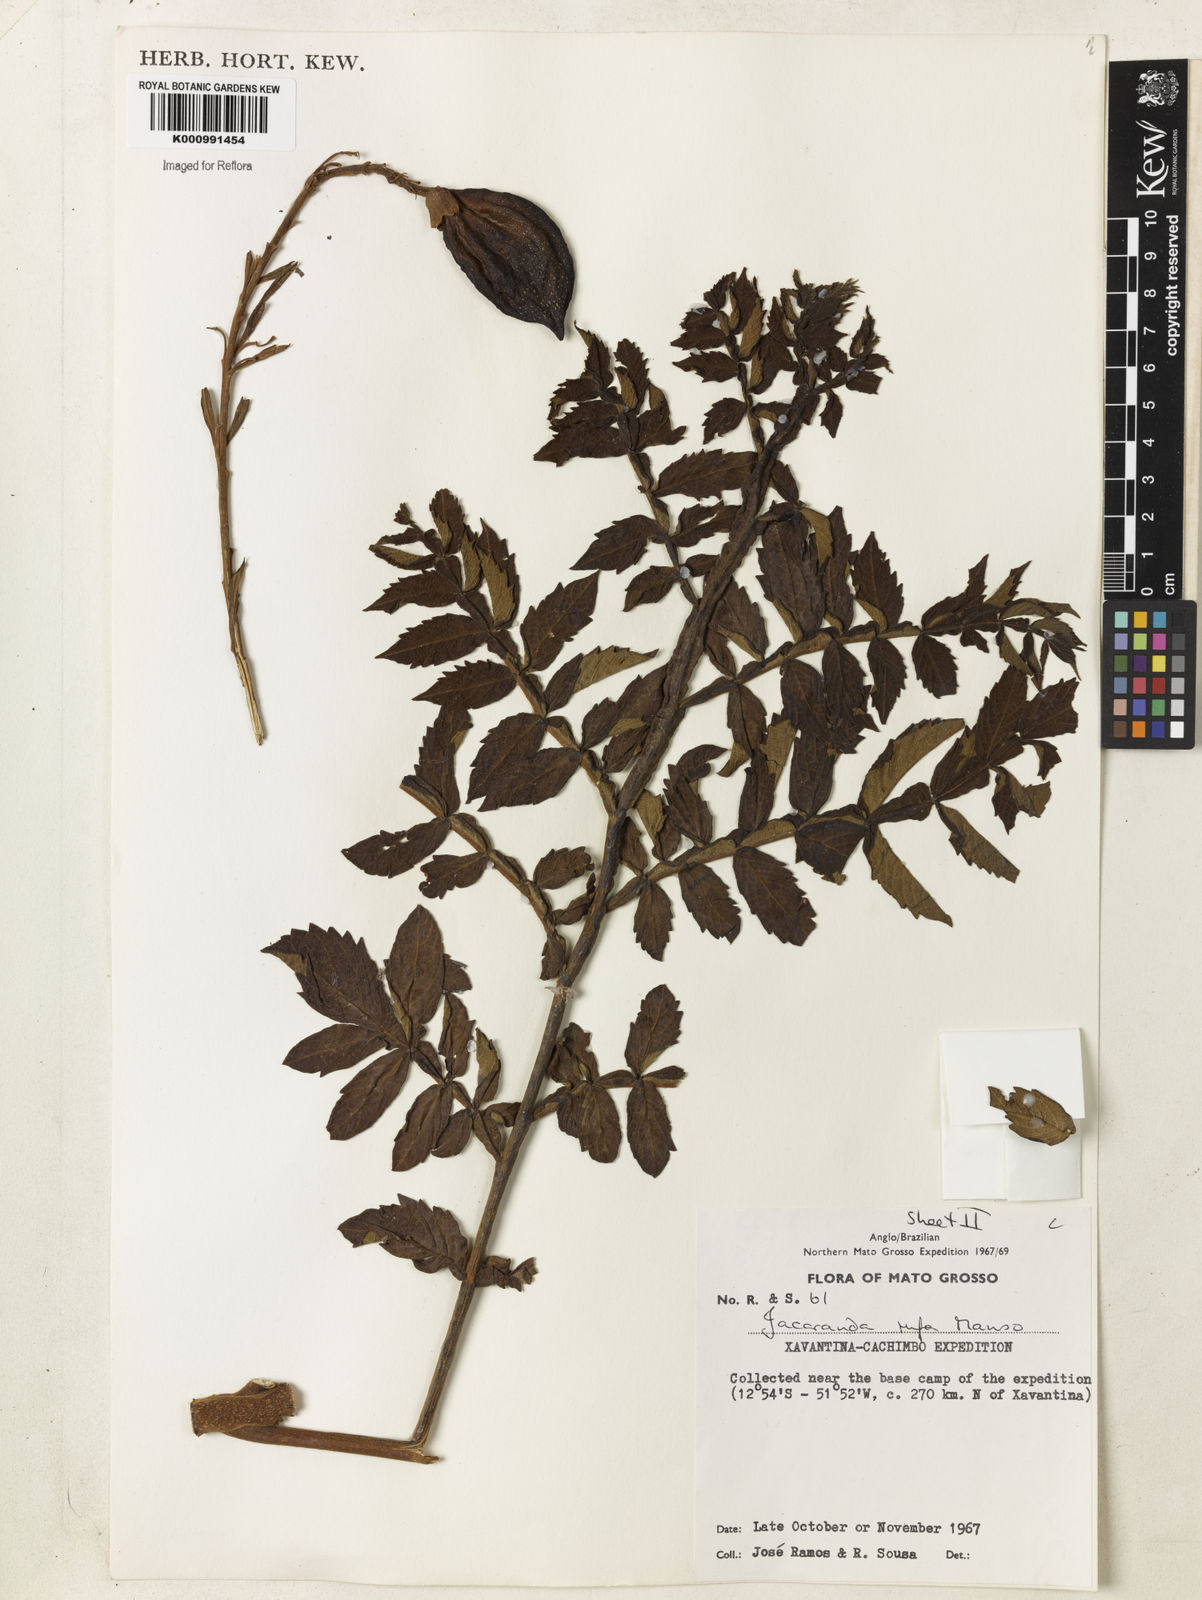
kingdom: Plantae
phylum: Tracheophyta
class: Magnoliopsida
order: Lamiales
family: Bignoniaceae
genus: Jacaranda
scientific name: Jacaranda rufa
